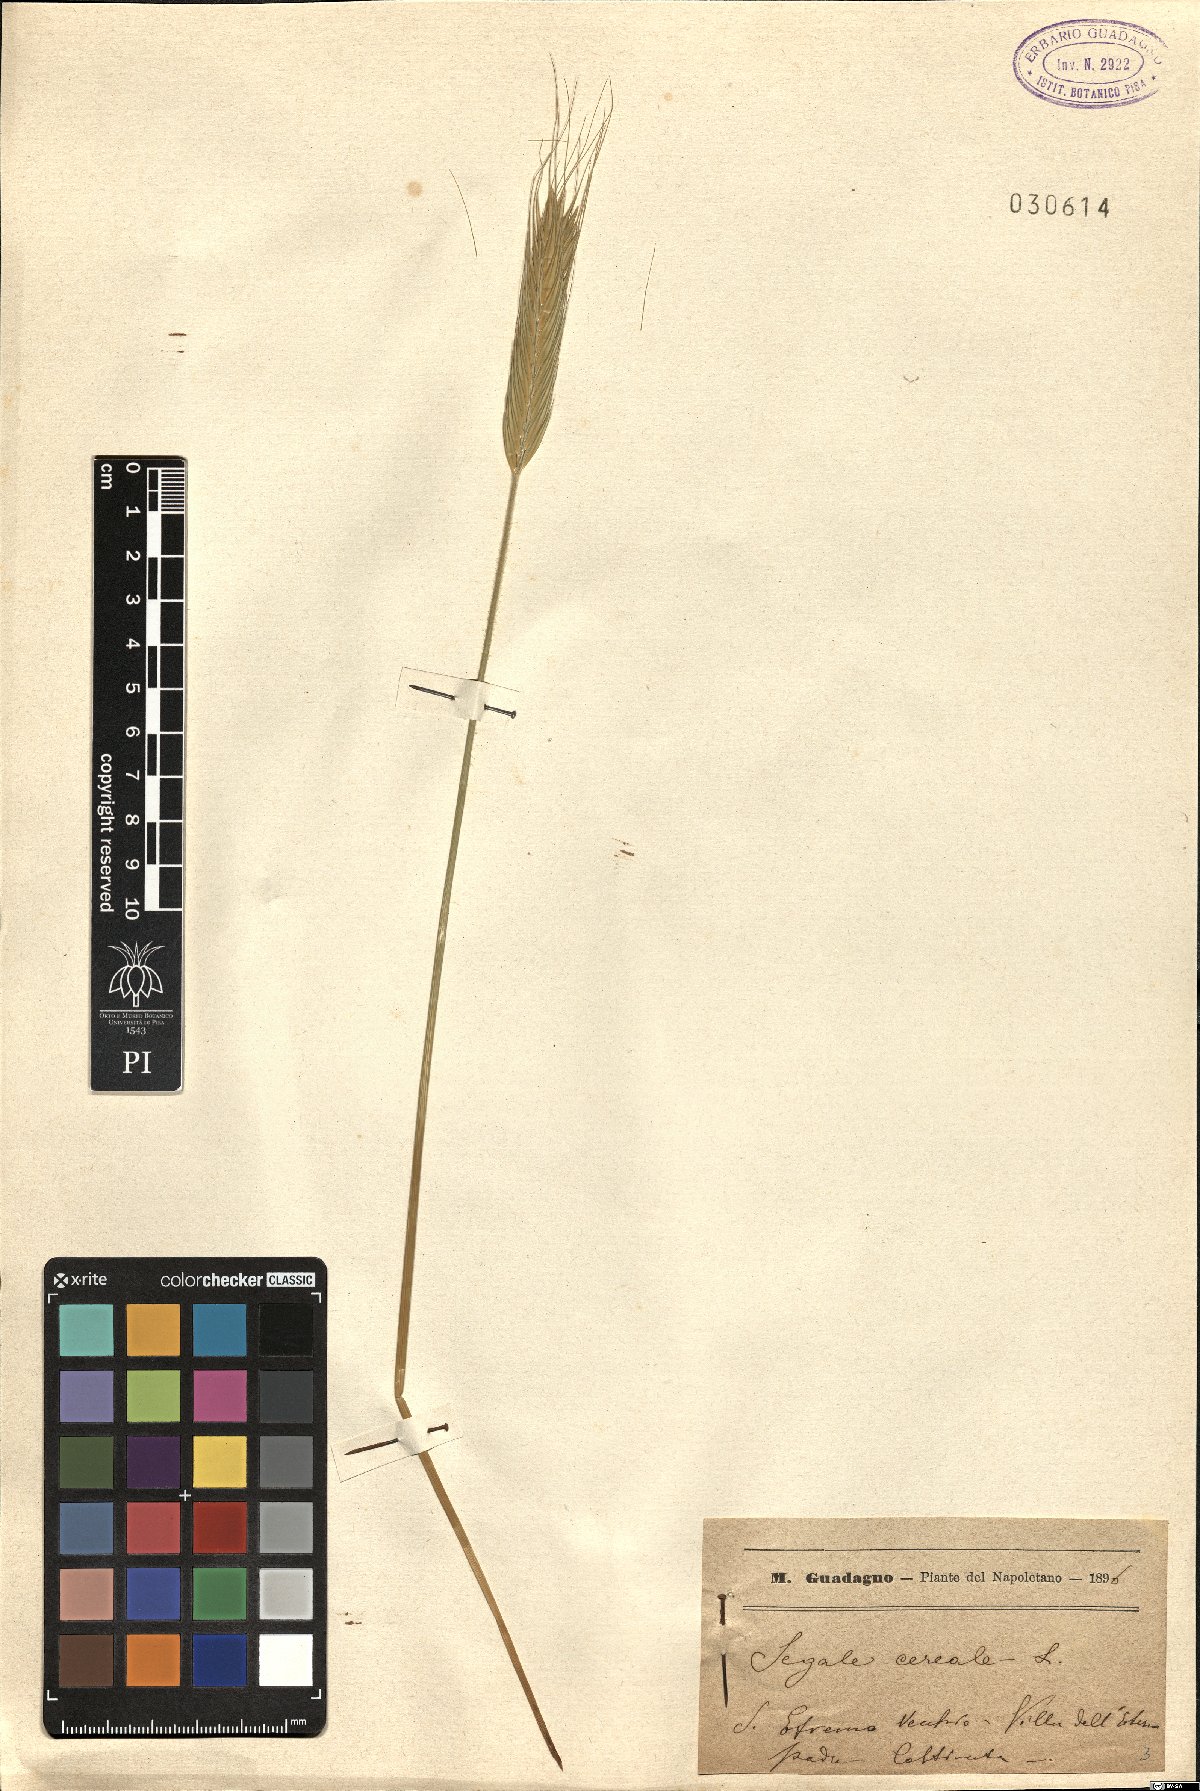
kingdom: Plantae
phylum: Tracheophyta
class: Liliopsida
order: Poales
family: Poaceae
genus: Secale
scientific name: Secale cereale
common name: Rye
